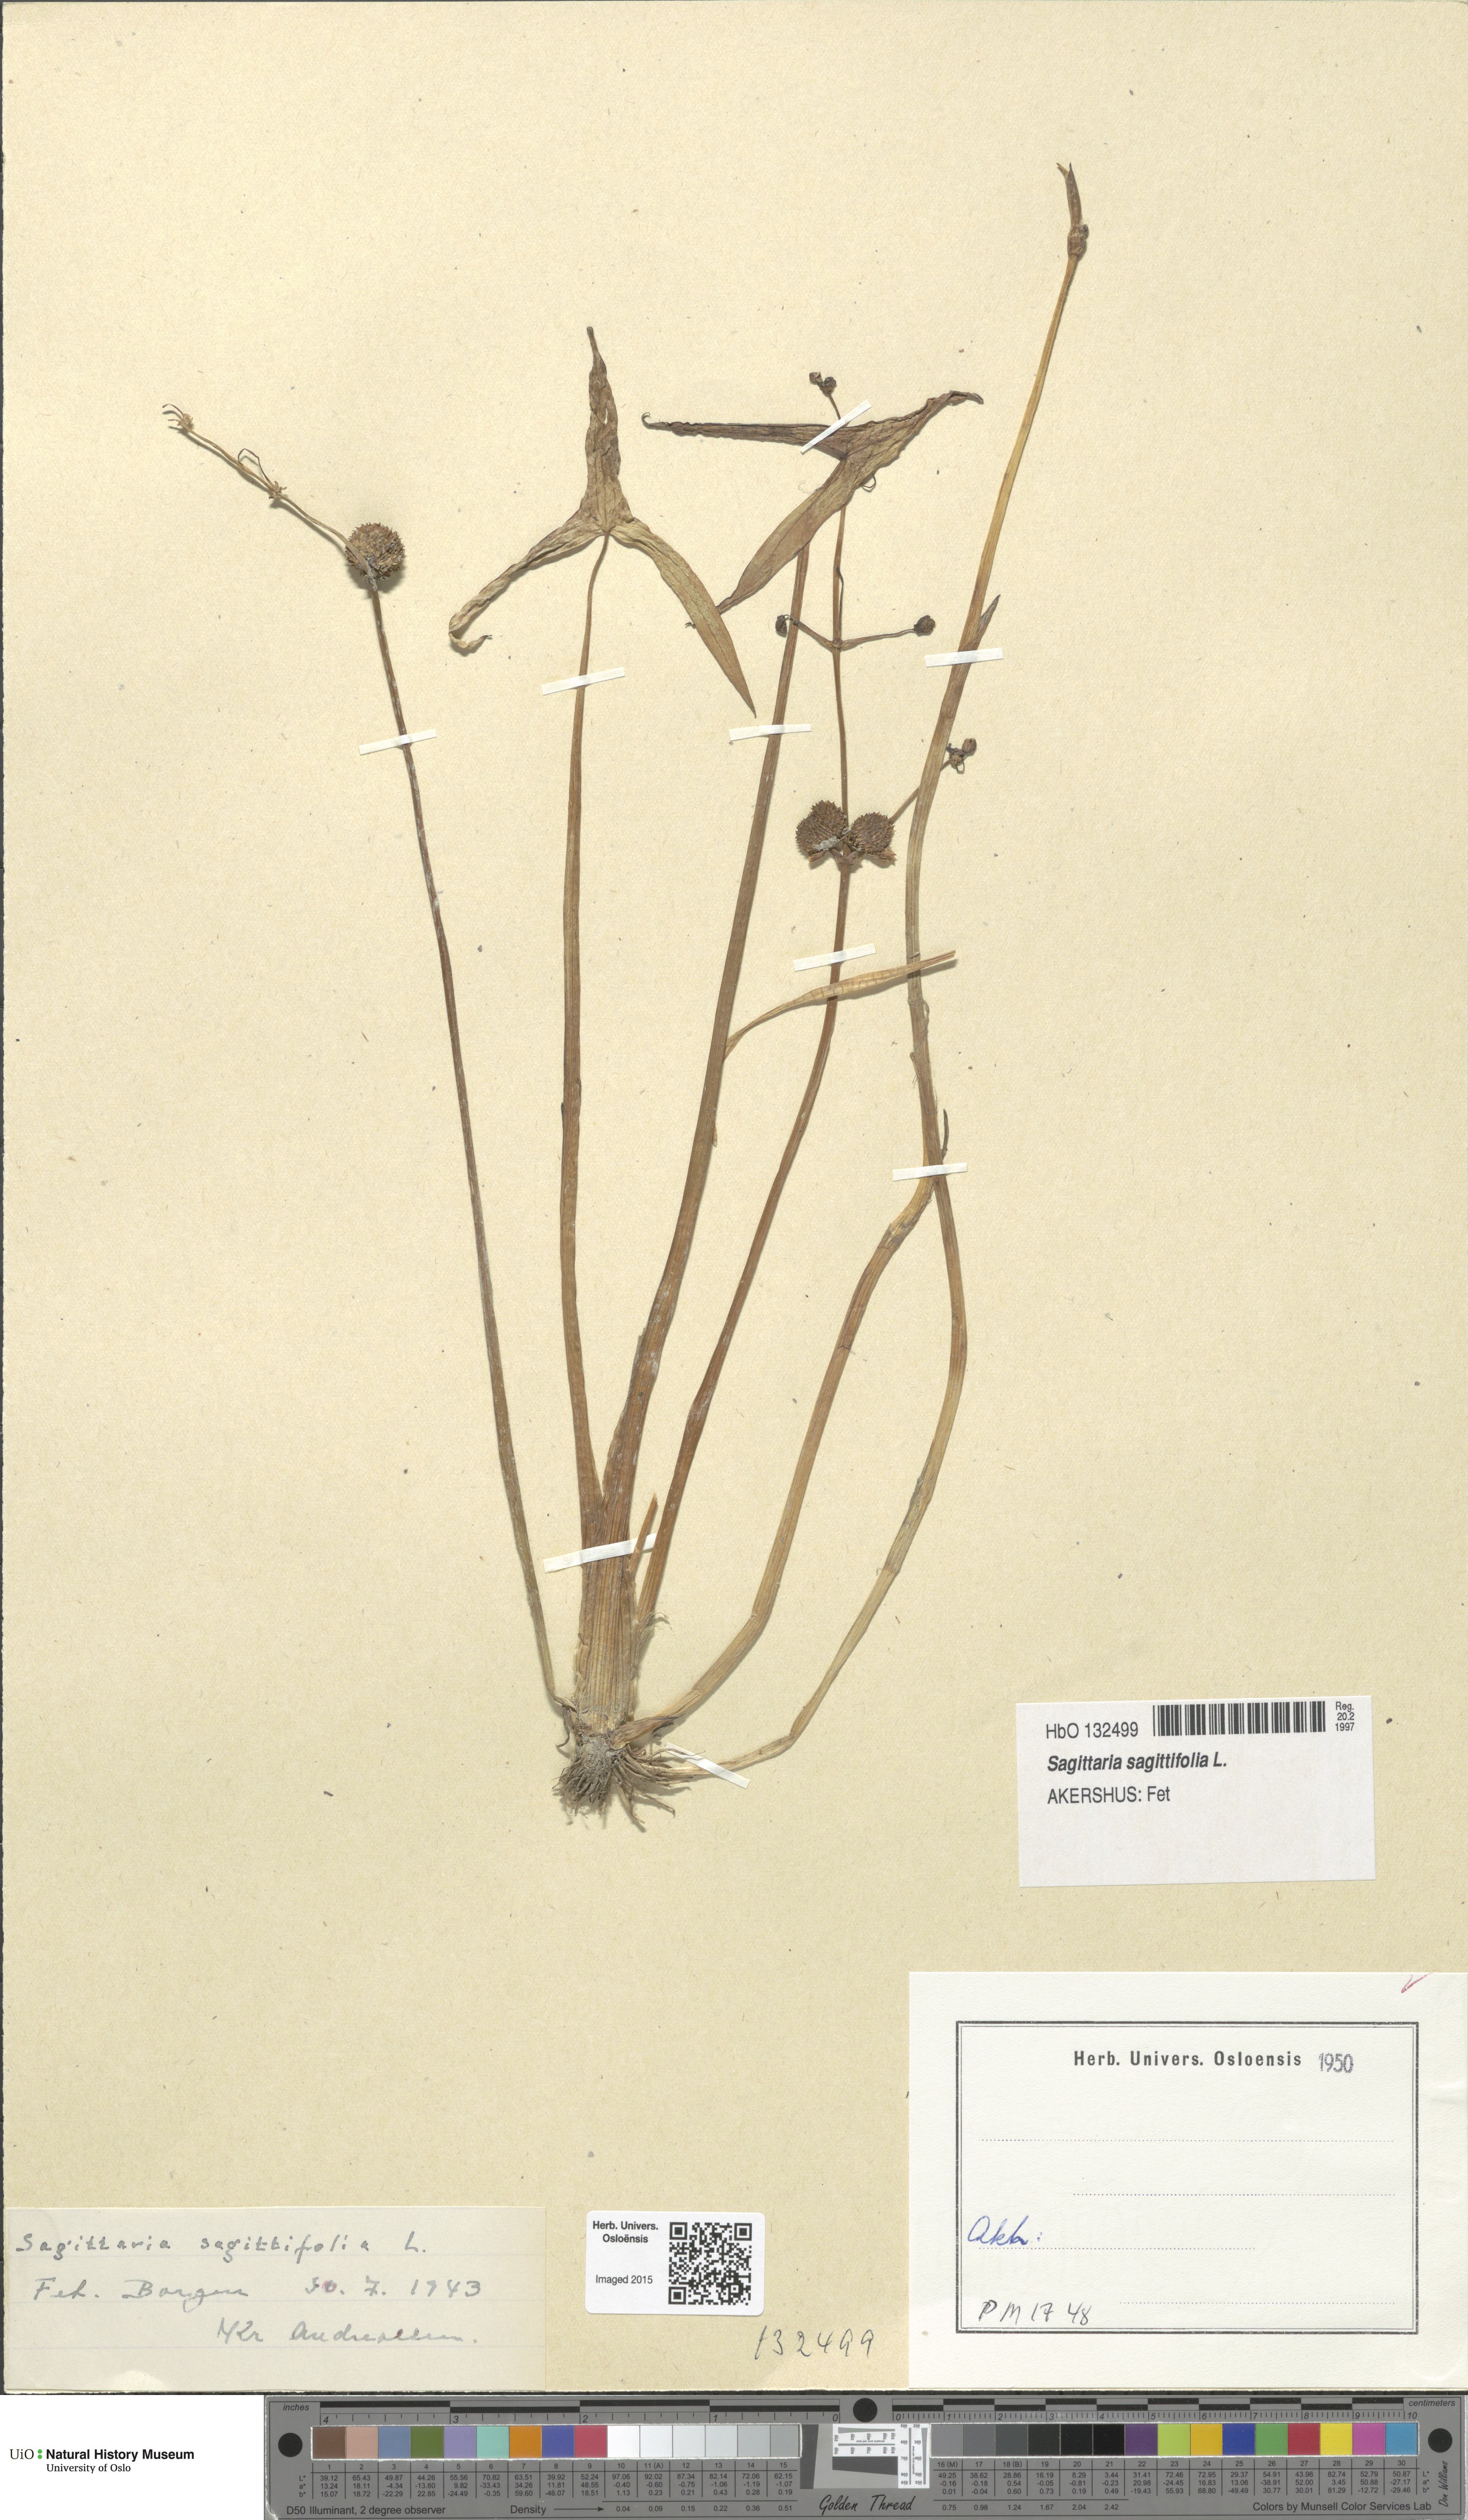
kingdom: Plantae
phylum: Tracheophyta
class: Liliopsida
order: Alismatales
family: Alismataceae
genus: Sagittaria
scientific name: Sagittaria sagittifolia
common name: Arrowhead
